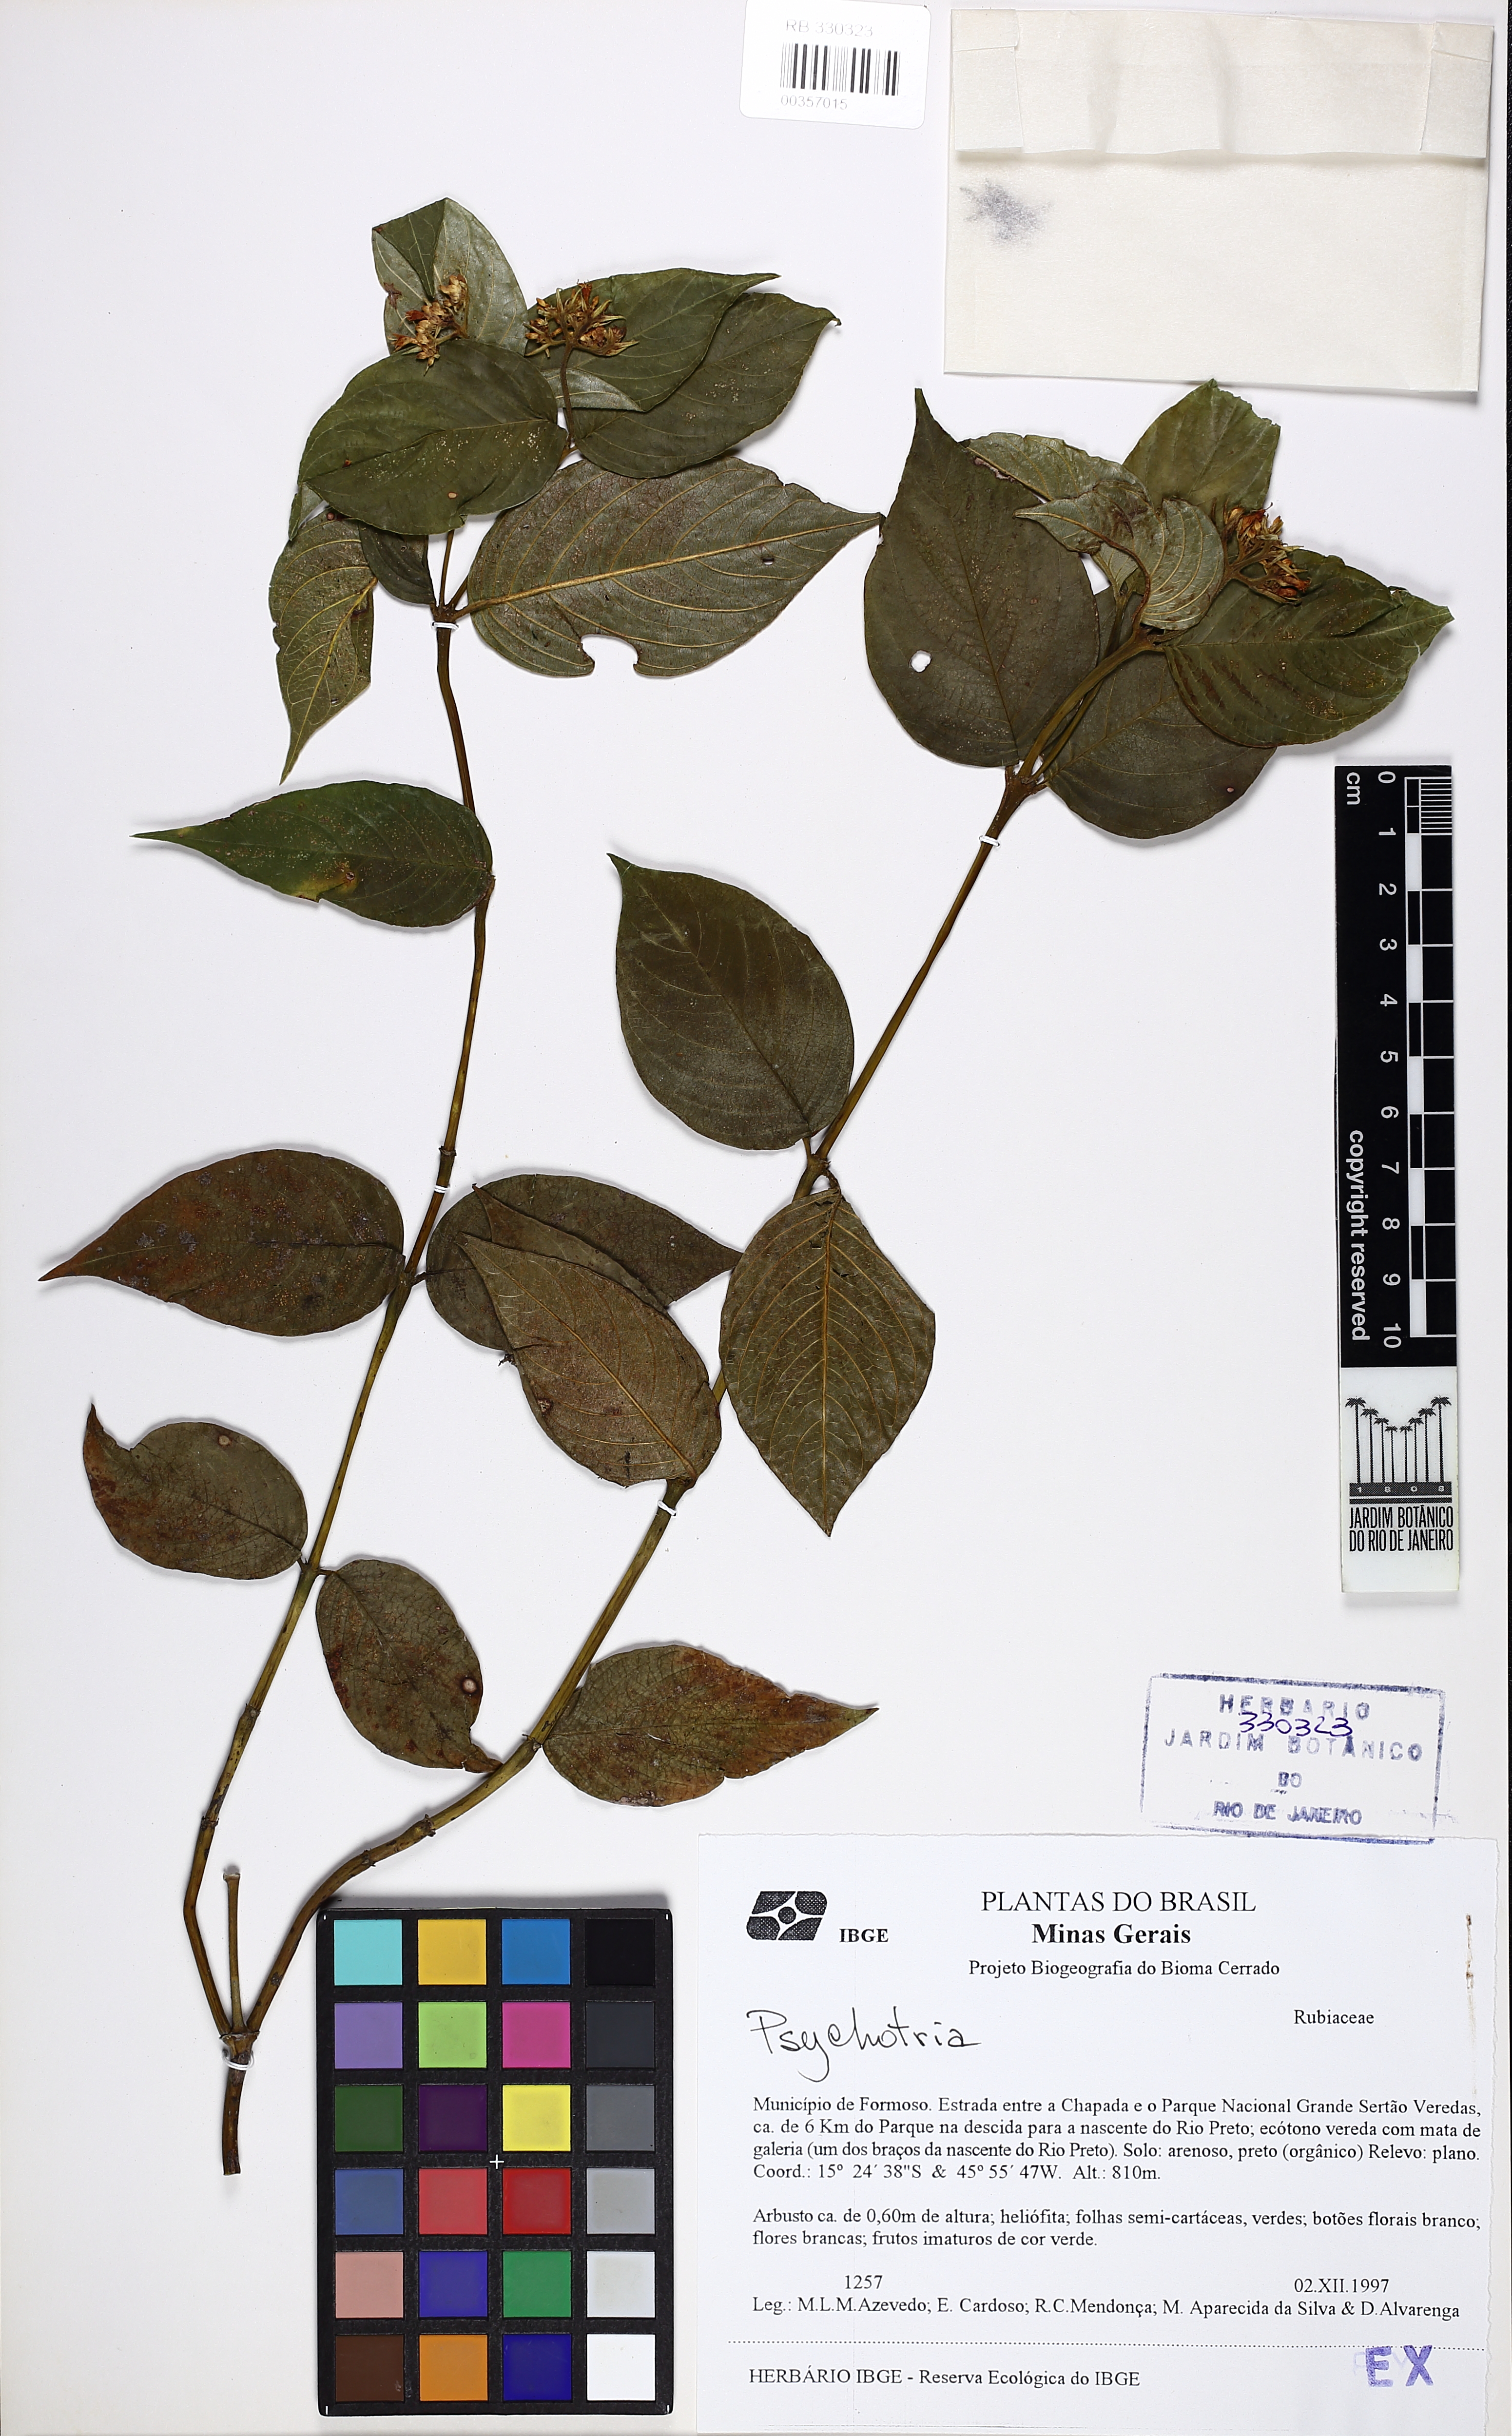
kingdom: Plantae
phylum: Tracheophyta
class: Magnoliopsida
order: Gentianales
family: Rubiaceae
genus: Psychotria
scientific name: Psychotria bahiensis
